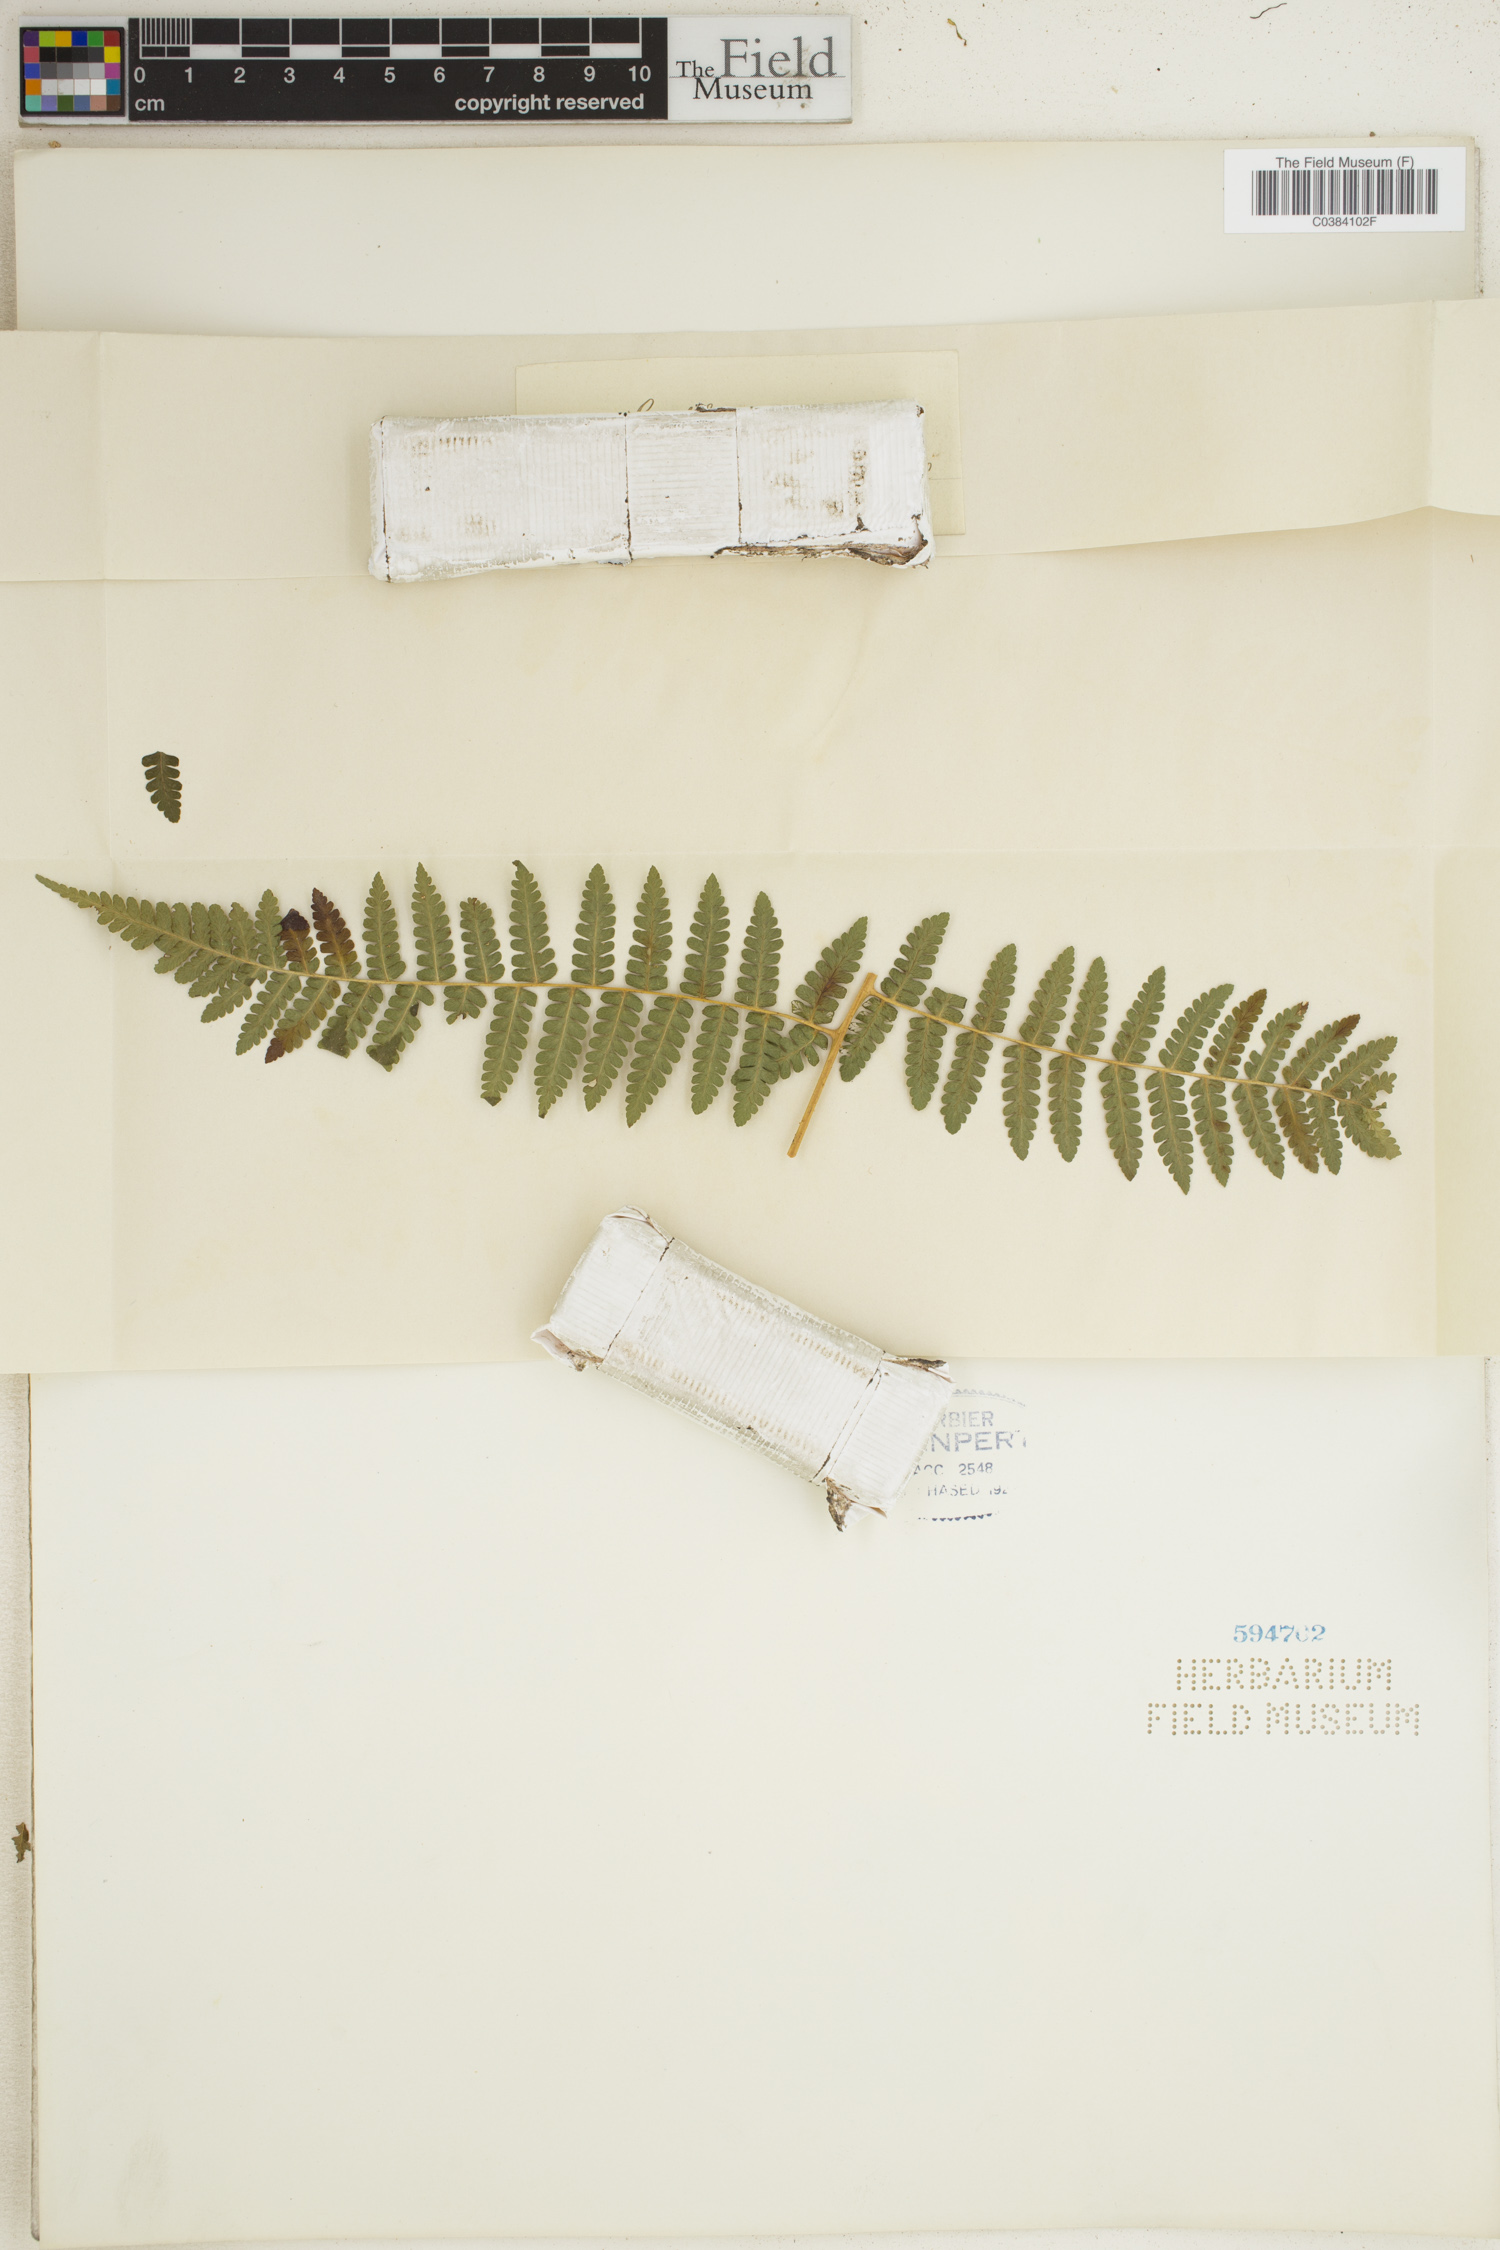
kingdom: Plantae
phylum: Tracheophyta
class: Polypodiopsida
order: Polypodiales
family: Dennstaedtiaceae
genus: Hypolepis
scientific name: Hypolepis repens
